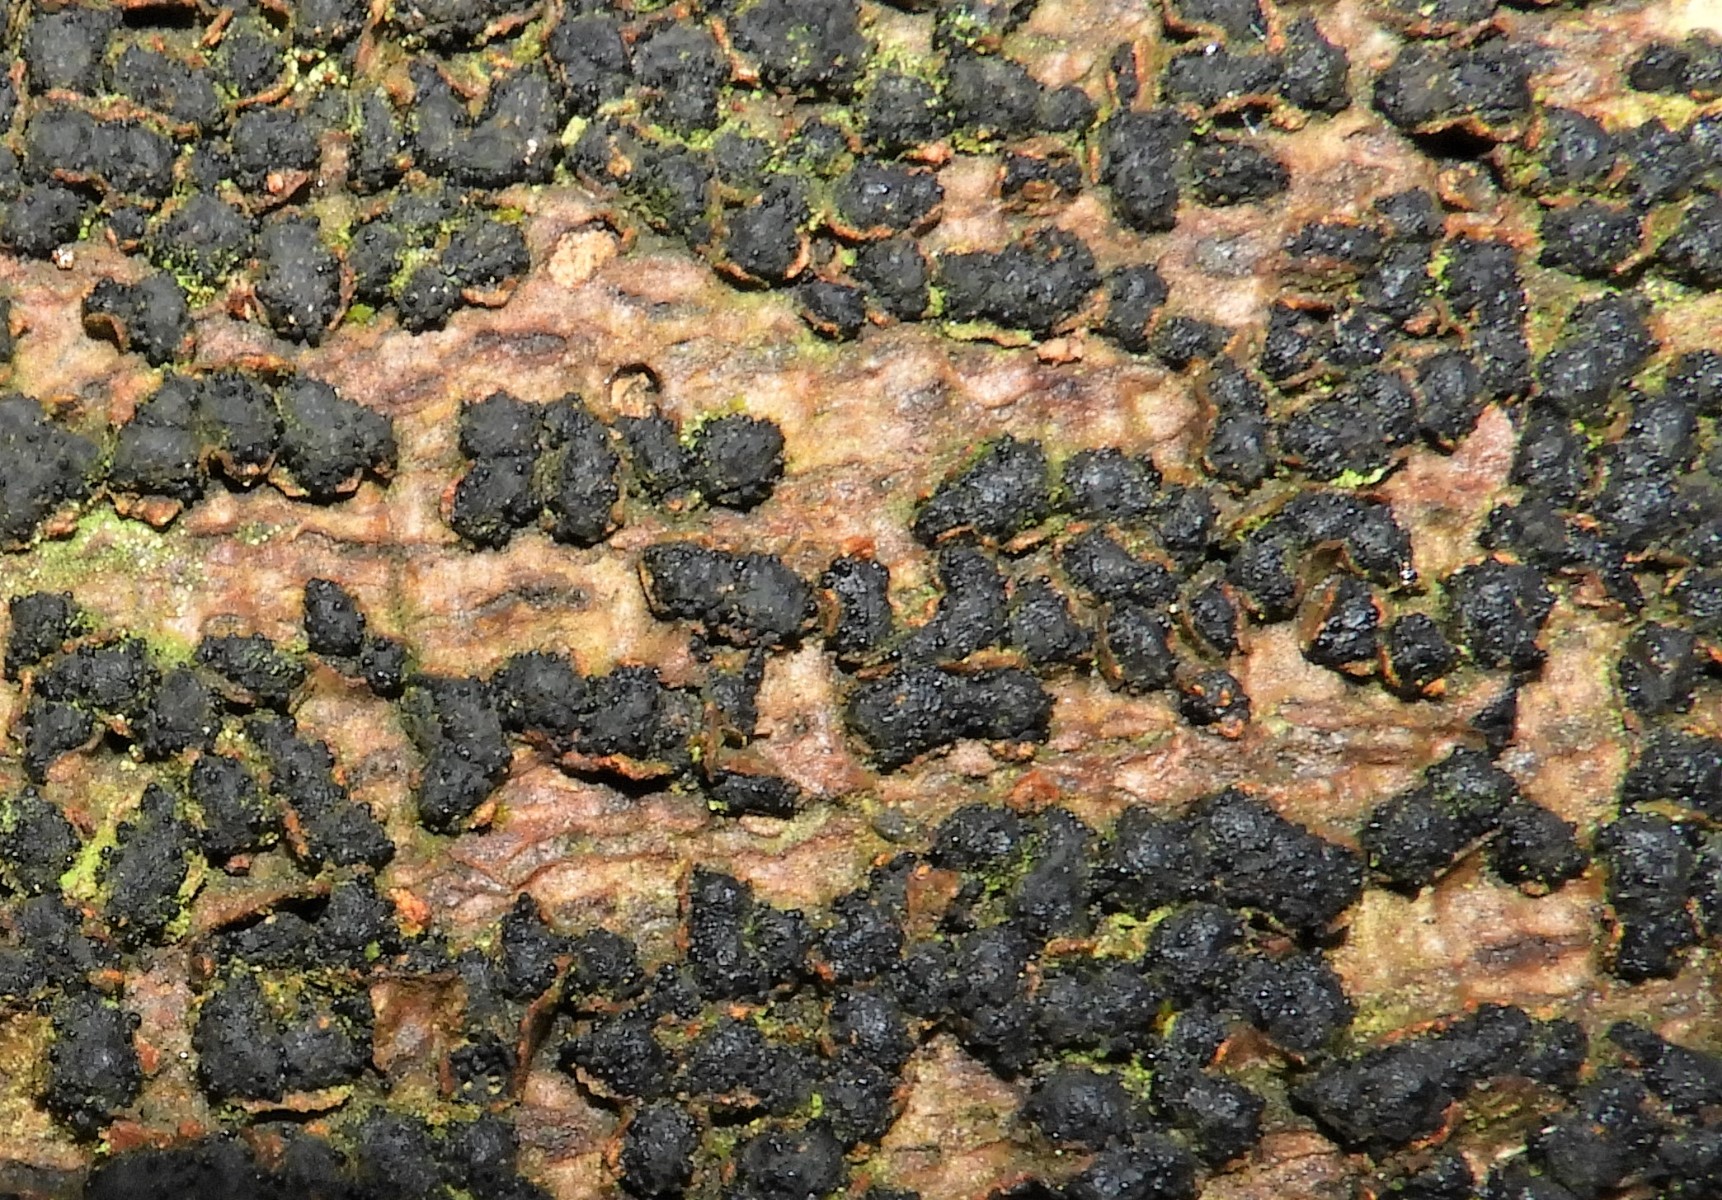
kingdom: Fungi
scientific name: Fungi
